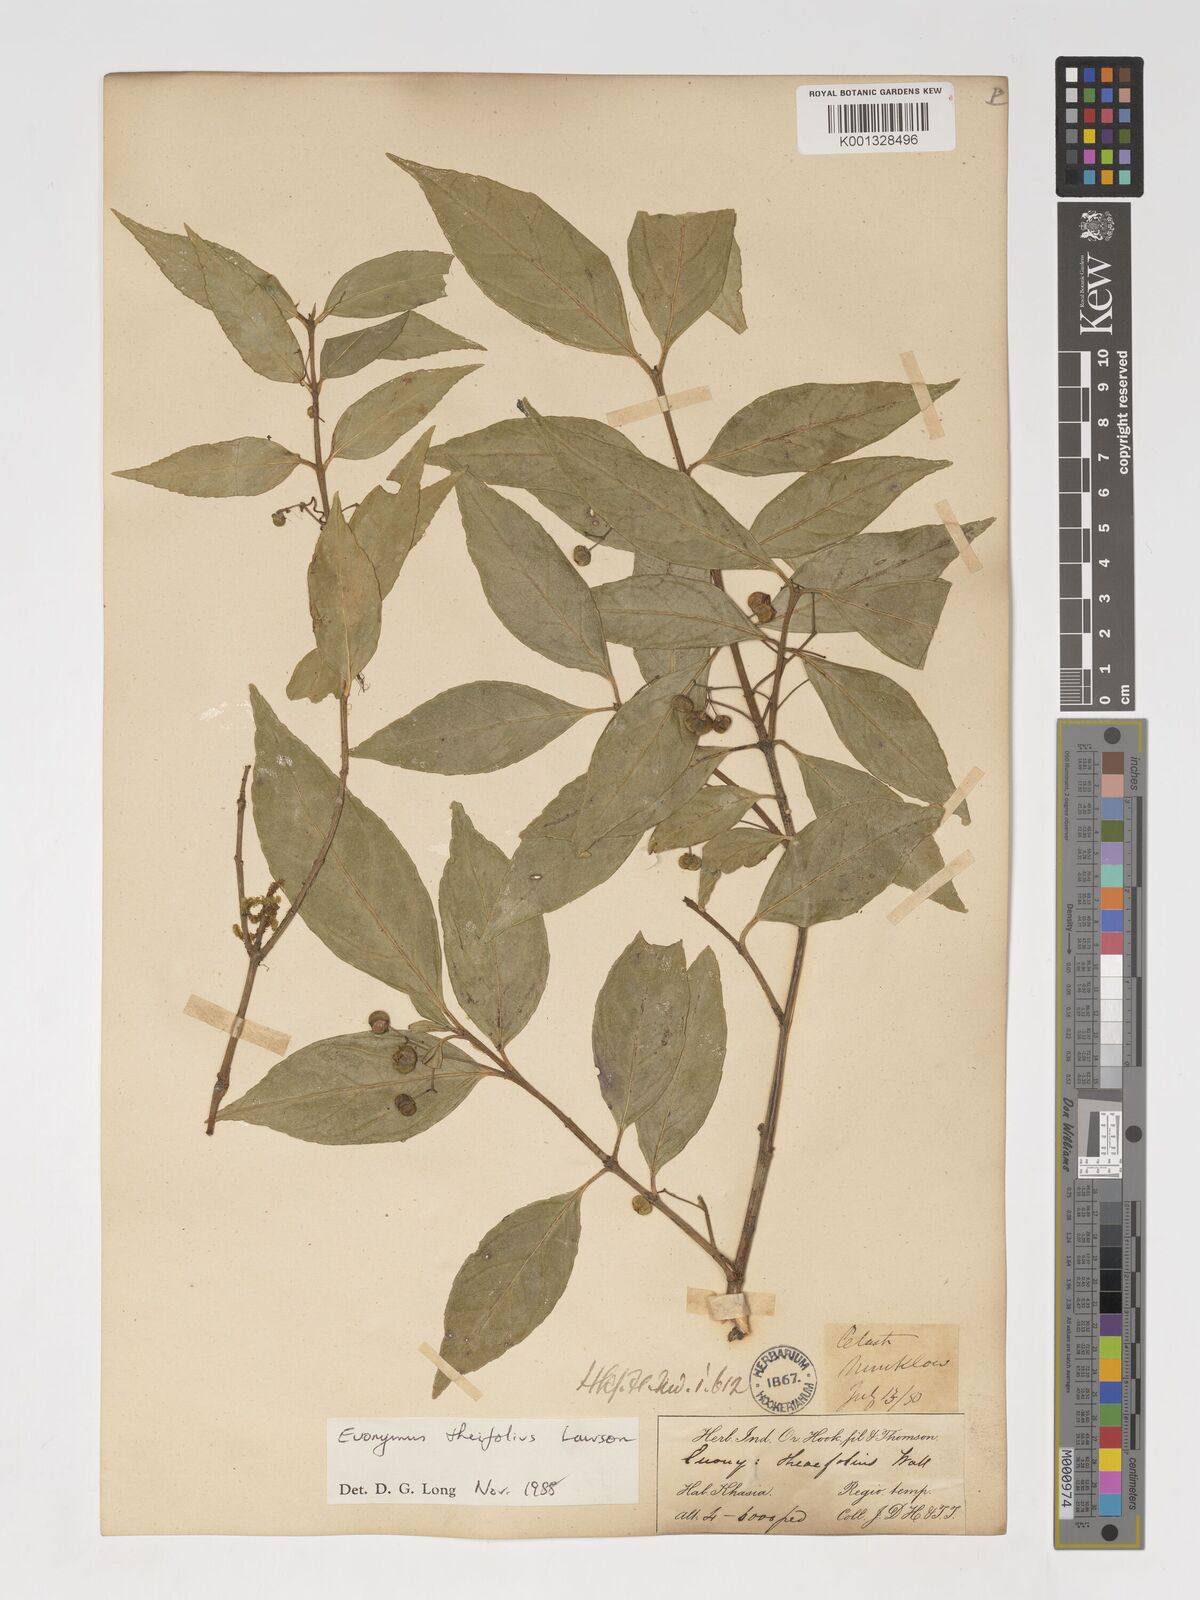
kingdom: Plantae
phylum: Tracheophyta
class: Magnoliopsida
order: Celastrales
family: Celastraceae
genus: Euonymus
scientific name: Euonymus theifolius
